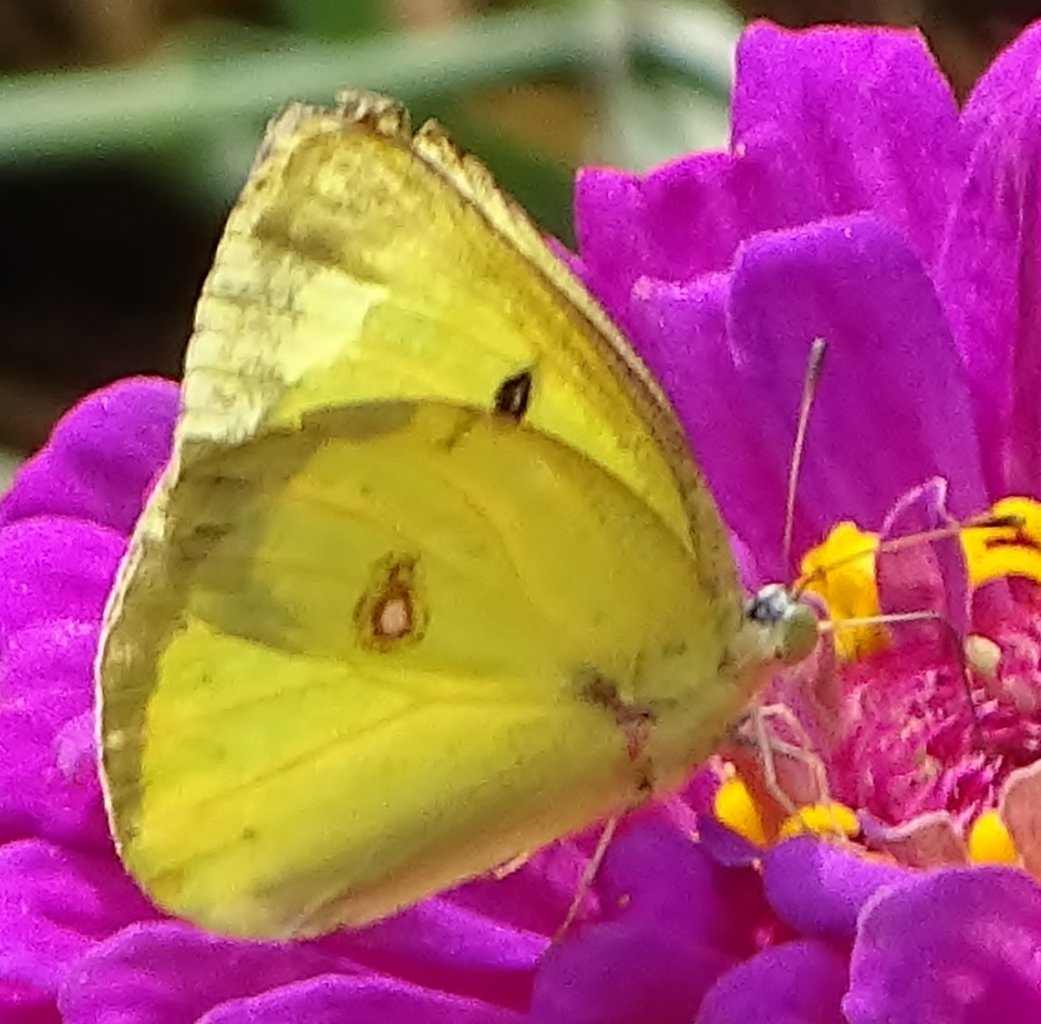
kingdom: Animalia
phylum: Arthropoda
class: Insecta
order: Lepidoptera
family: Pieridae
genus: Colias
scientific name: Colias philodice
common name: Clouded Sulphur
